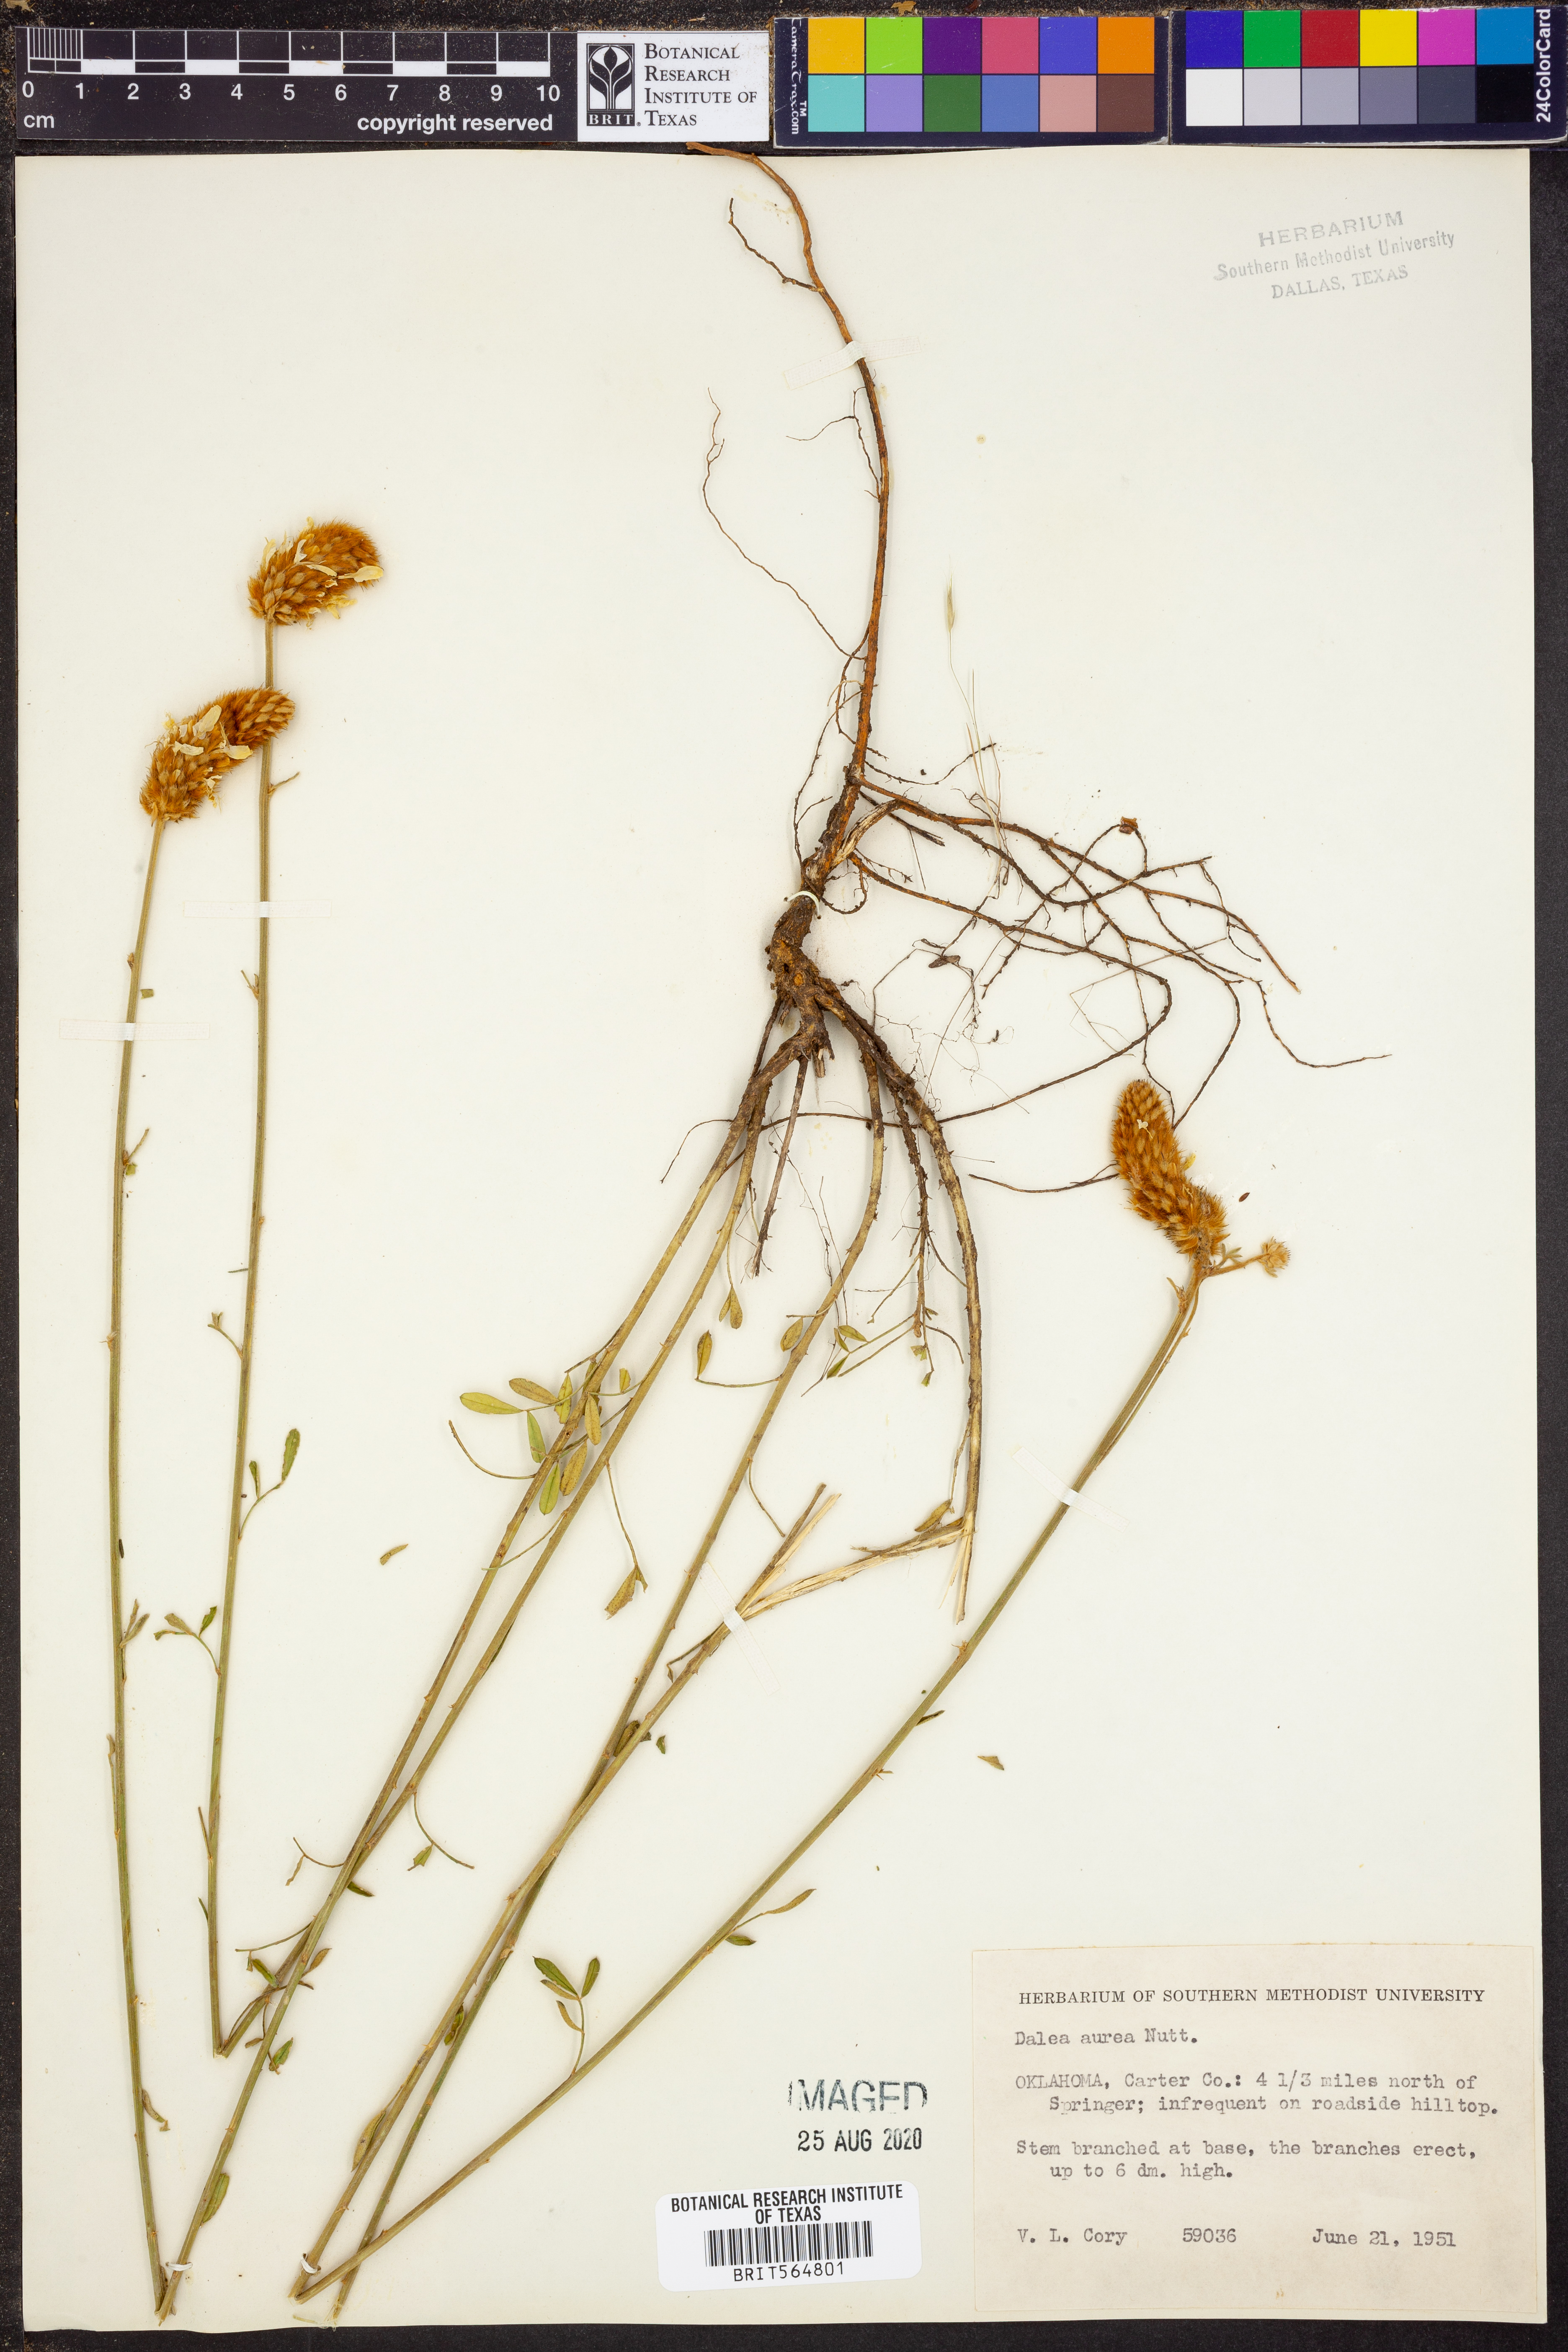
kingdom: Plantae
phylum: Tracheophyta
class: Magnoliopsida
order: Fabales
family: Fabaceae
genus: Dalea
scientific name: Dalea aurea
